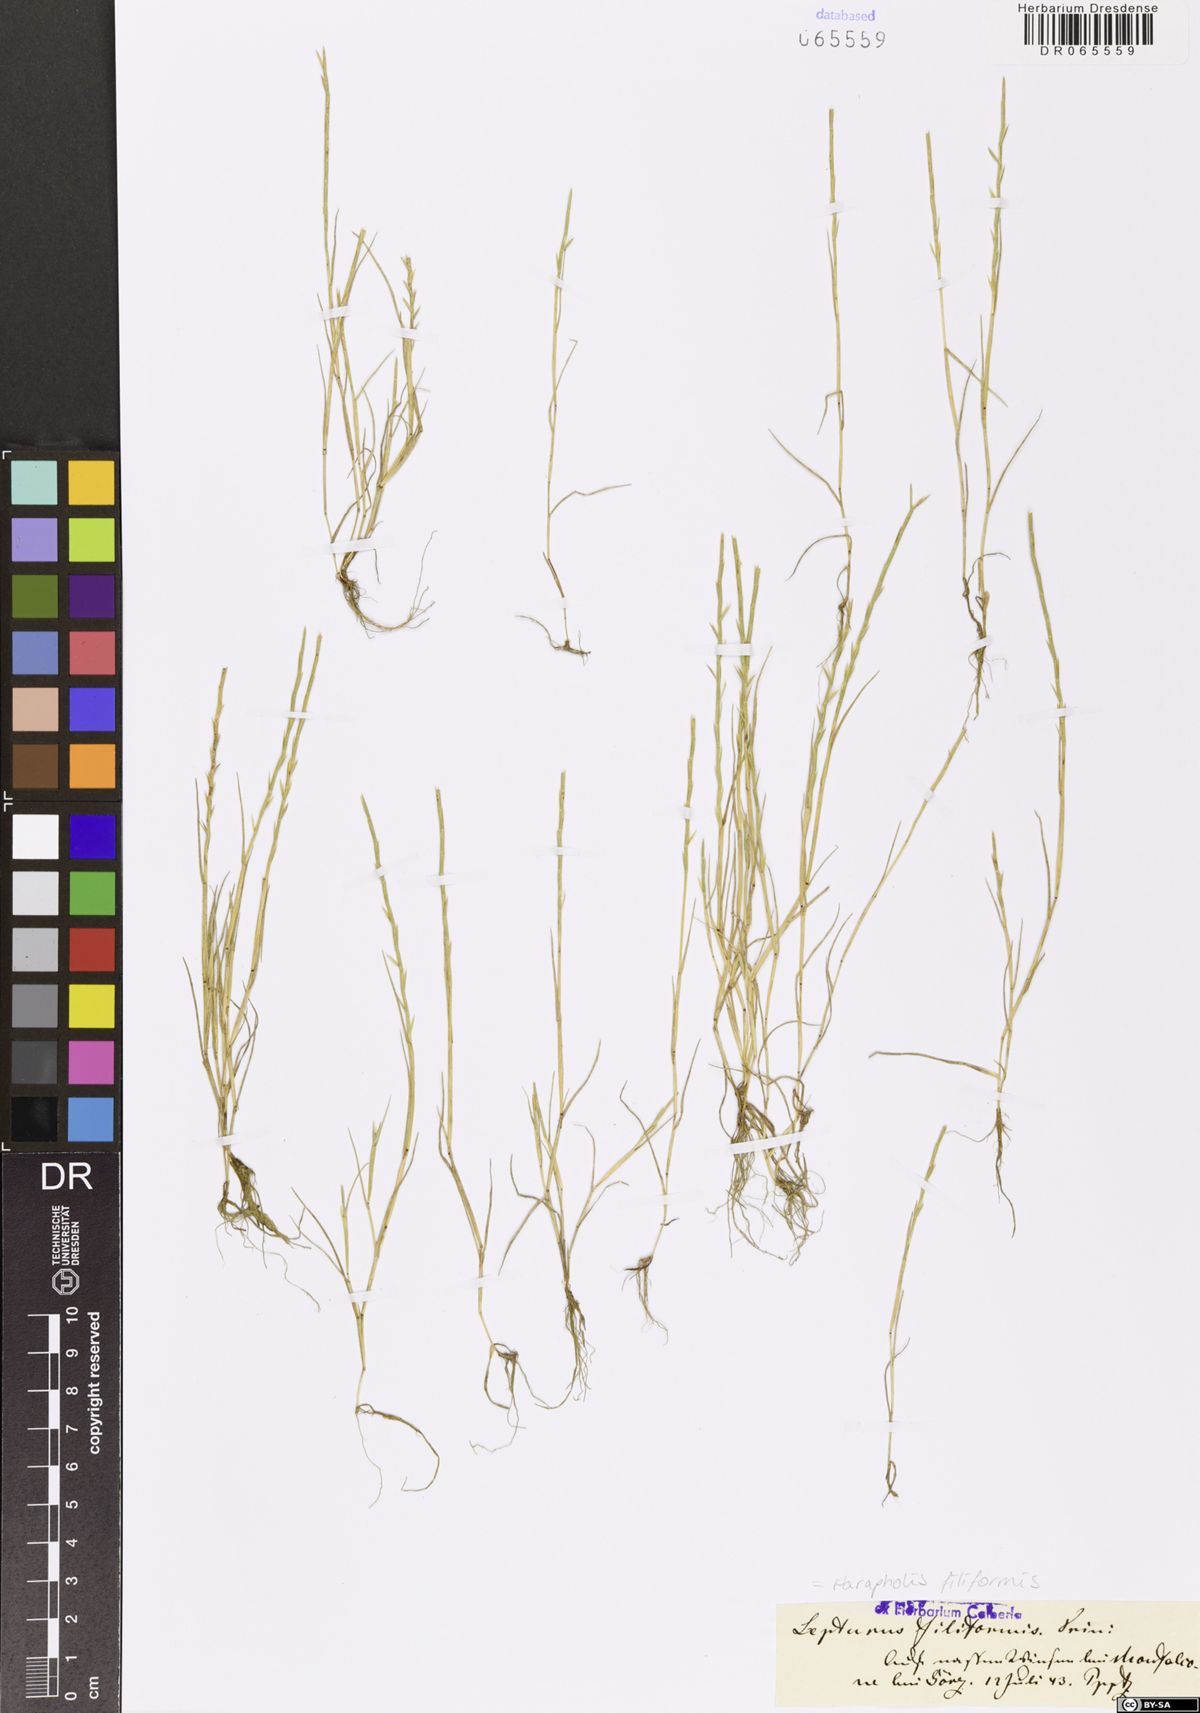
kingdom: Plantae
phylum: Tracheophyta
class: Liliopsida
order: Poales
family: Poaceae
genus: Parapholis
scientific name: Parapholis filiformis
